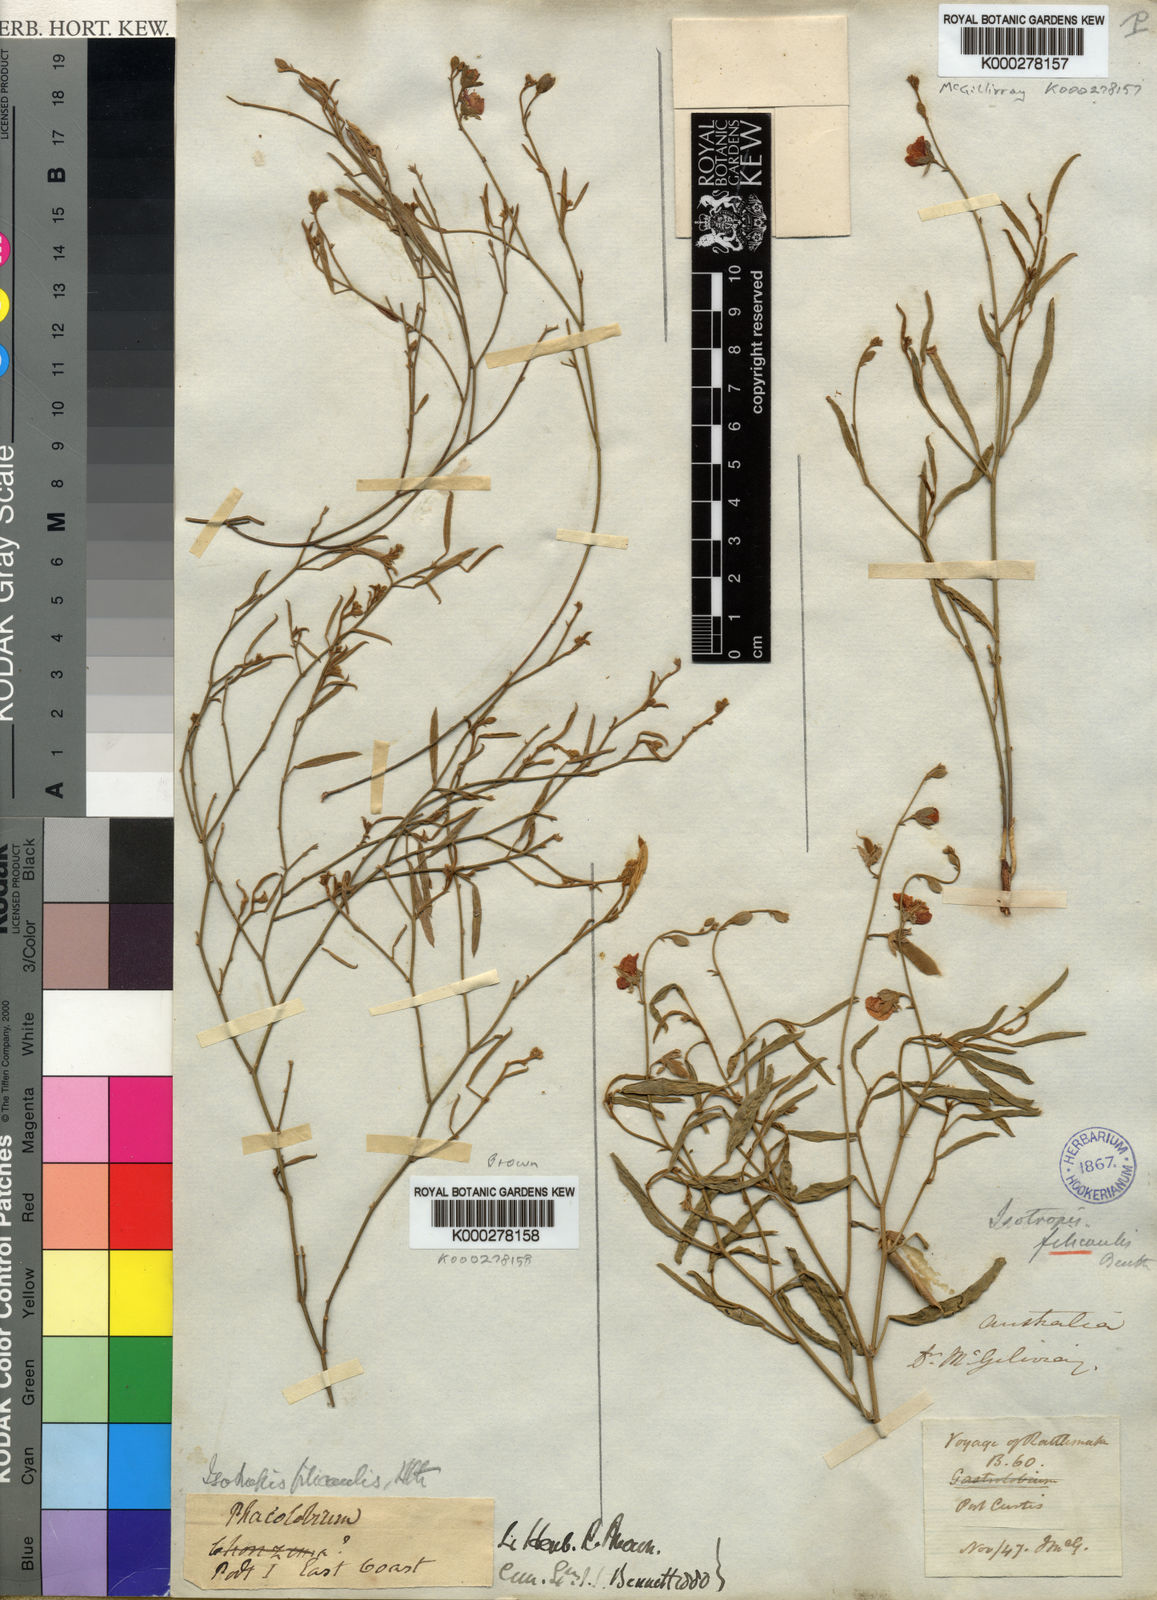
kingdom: Plantae
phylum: Tracheophyta
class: Magnoliopsida
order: Fabales
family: Fabaceae
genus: Isotropis
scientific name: Isotropis filicaulis
